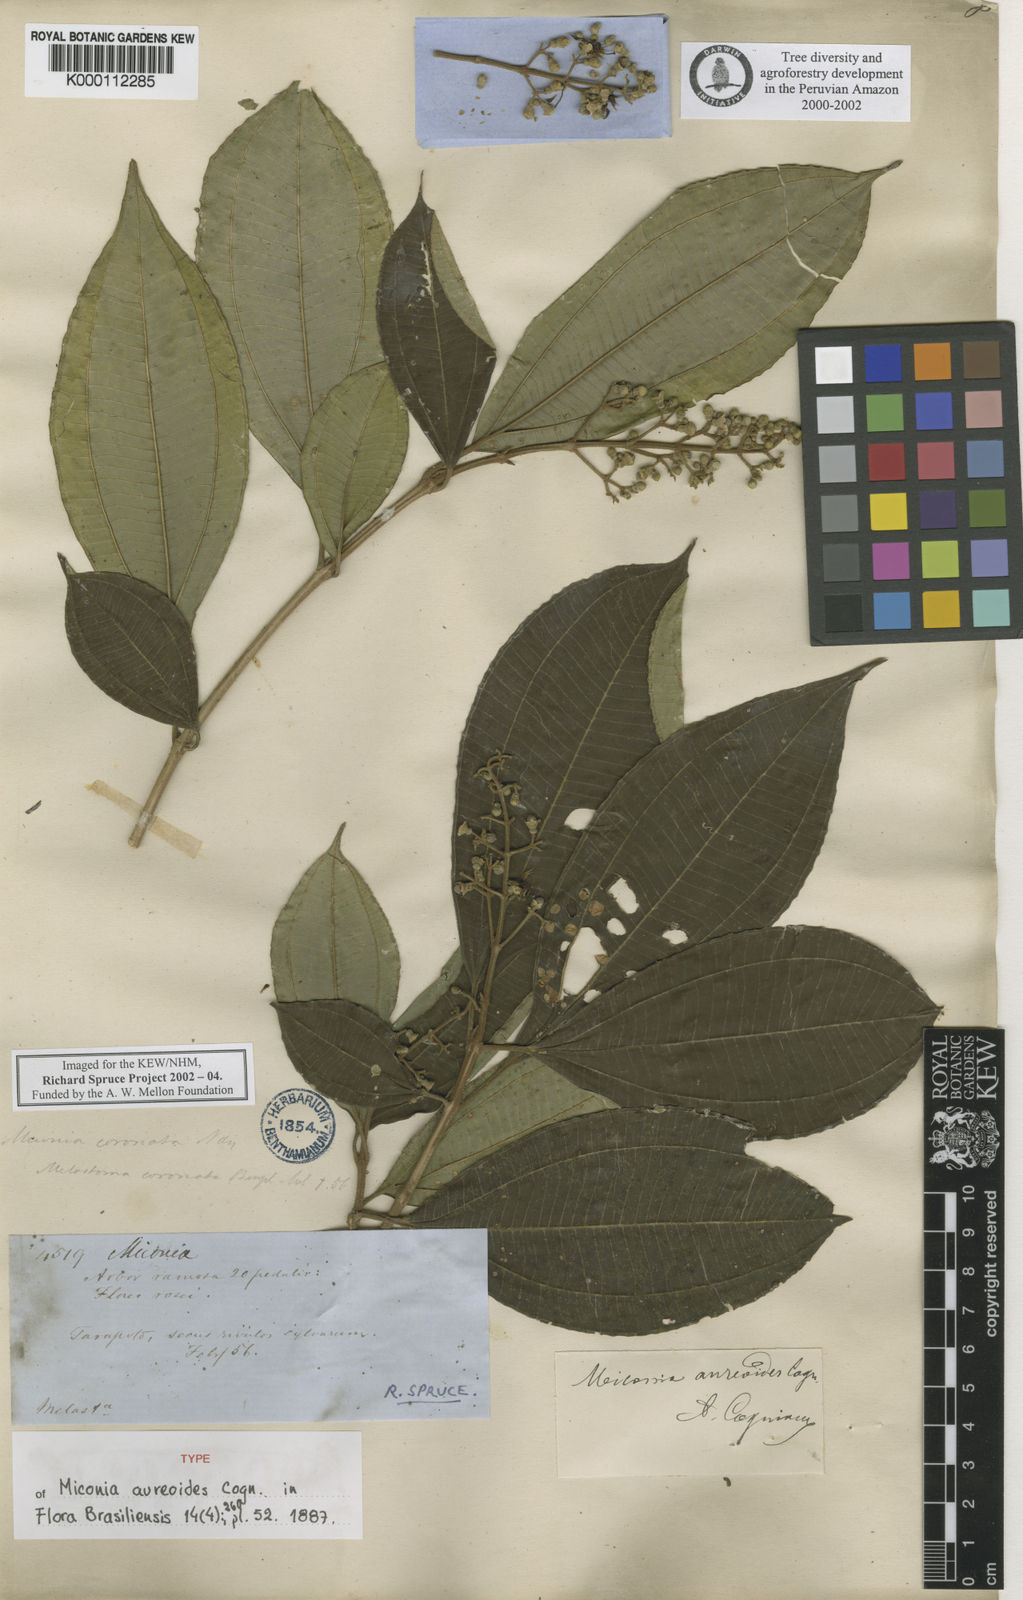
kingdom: Plantae
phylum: Tracheophyta
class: Magnoliopsida
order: Myrtales
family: Melastomataceae
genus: Miconia
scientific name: Miconia aureoides
